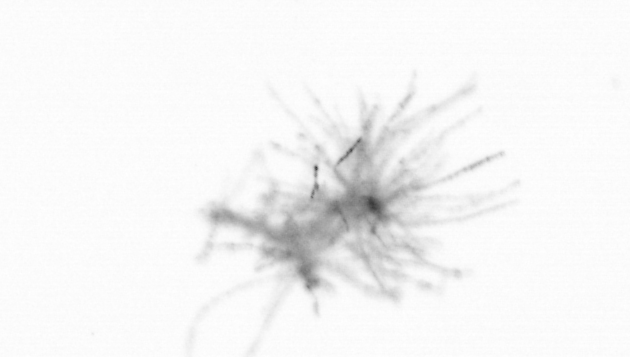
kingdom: Bacteria
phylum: Cyanobacteria
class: Cyanobacteriia
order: Cyanobacteriales
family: Microcoleaceae
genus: Trichodesmium
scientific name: Trichodesmium
